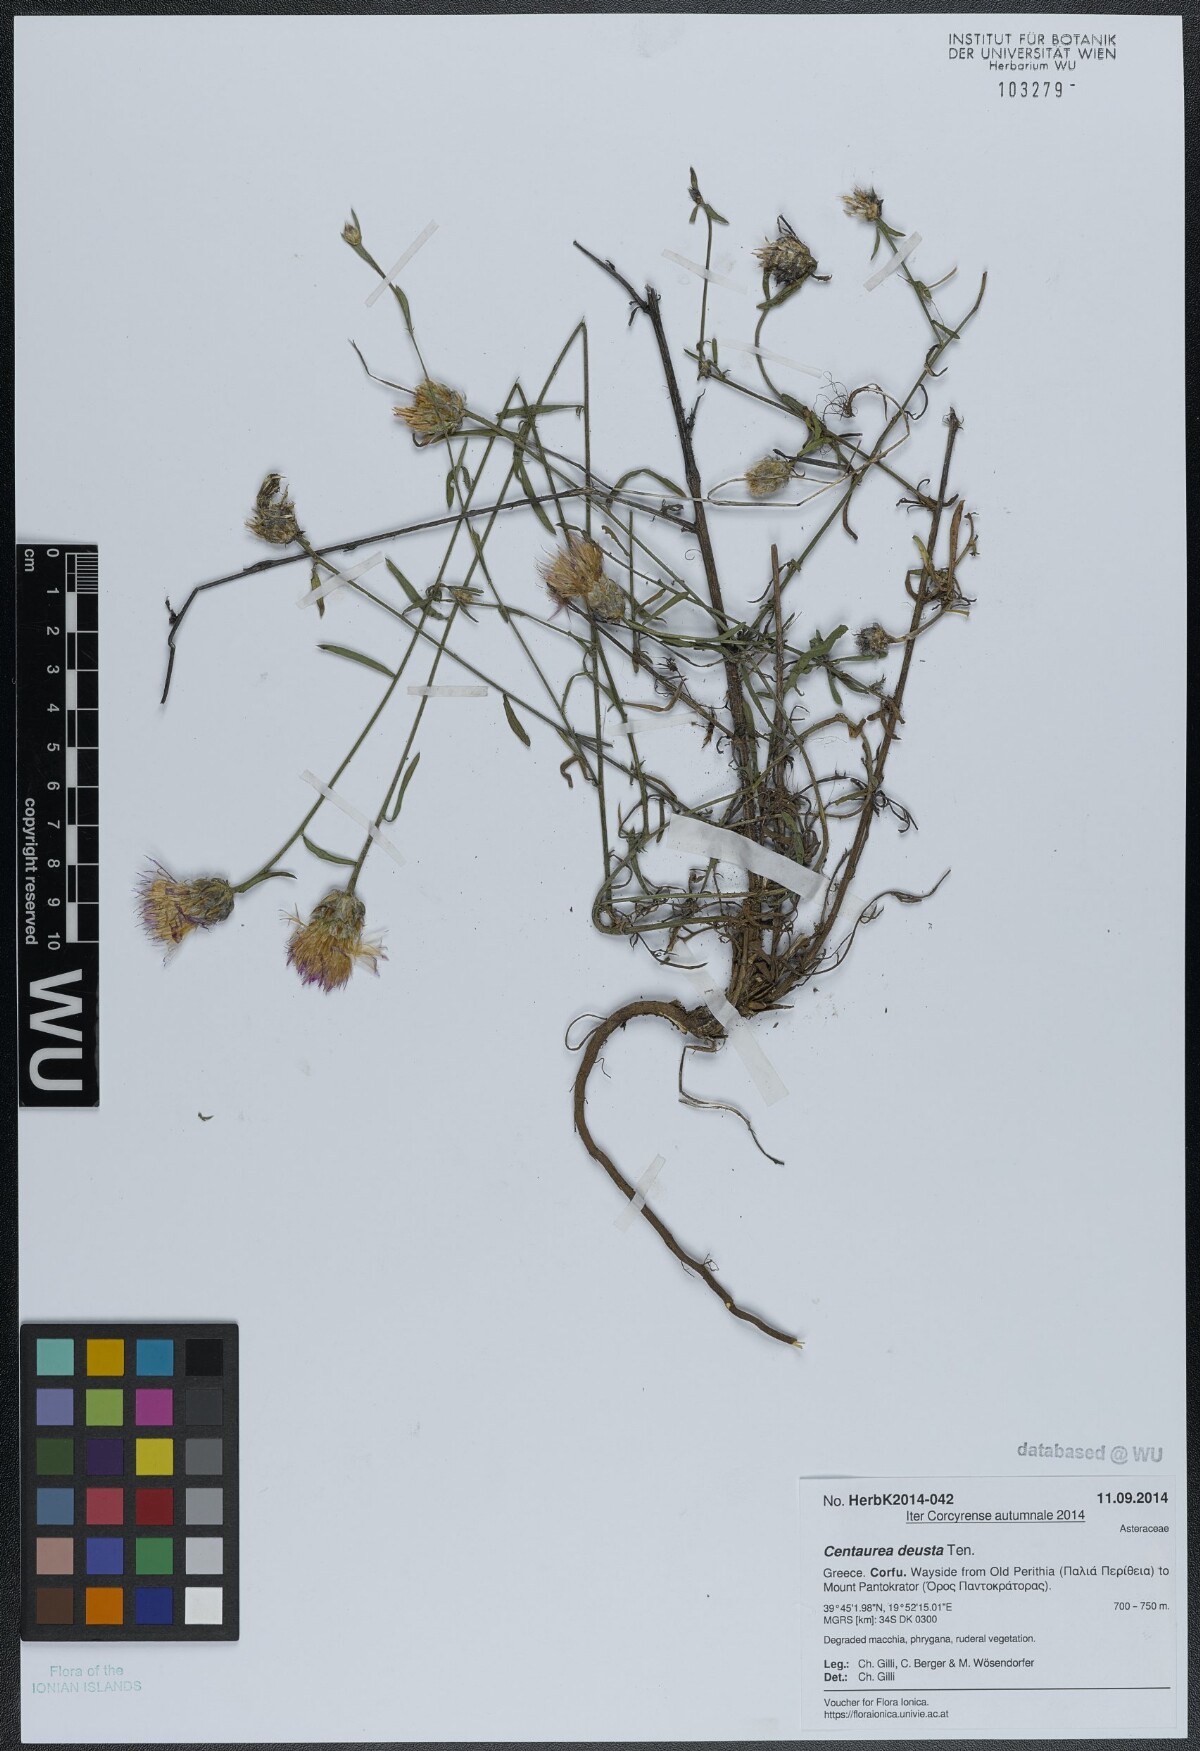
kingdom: Plantae
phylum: Tracheophyta
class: Magnoliopsida
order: Asterales
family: Asteraceae
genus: Centaurea
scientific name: Centaurea deusta
